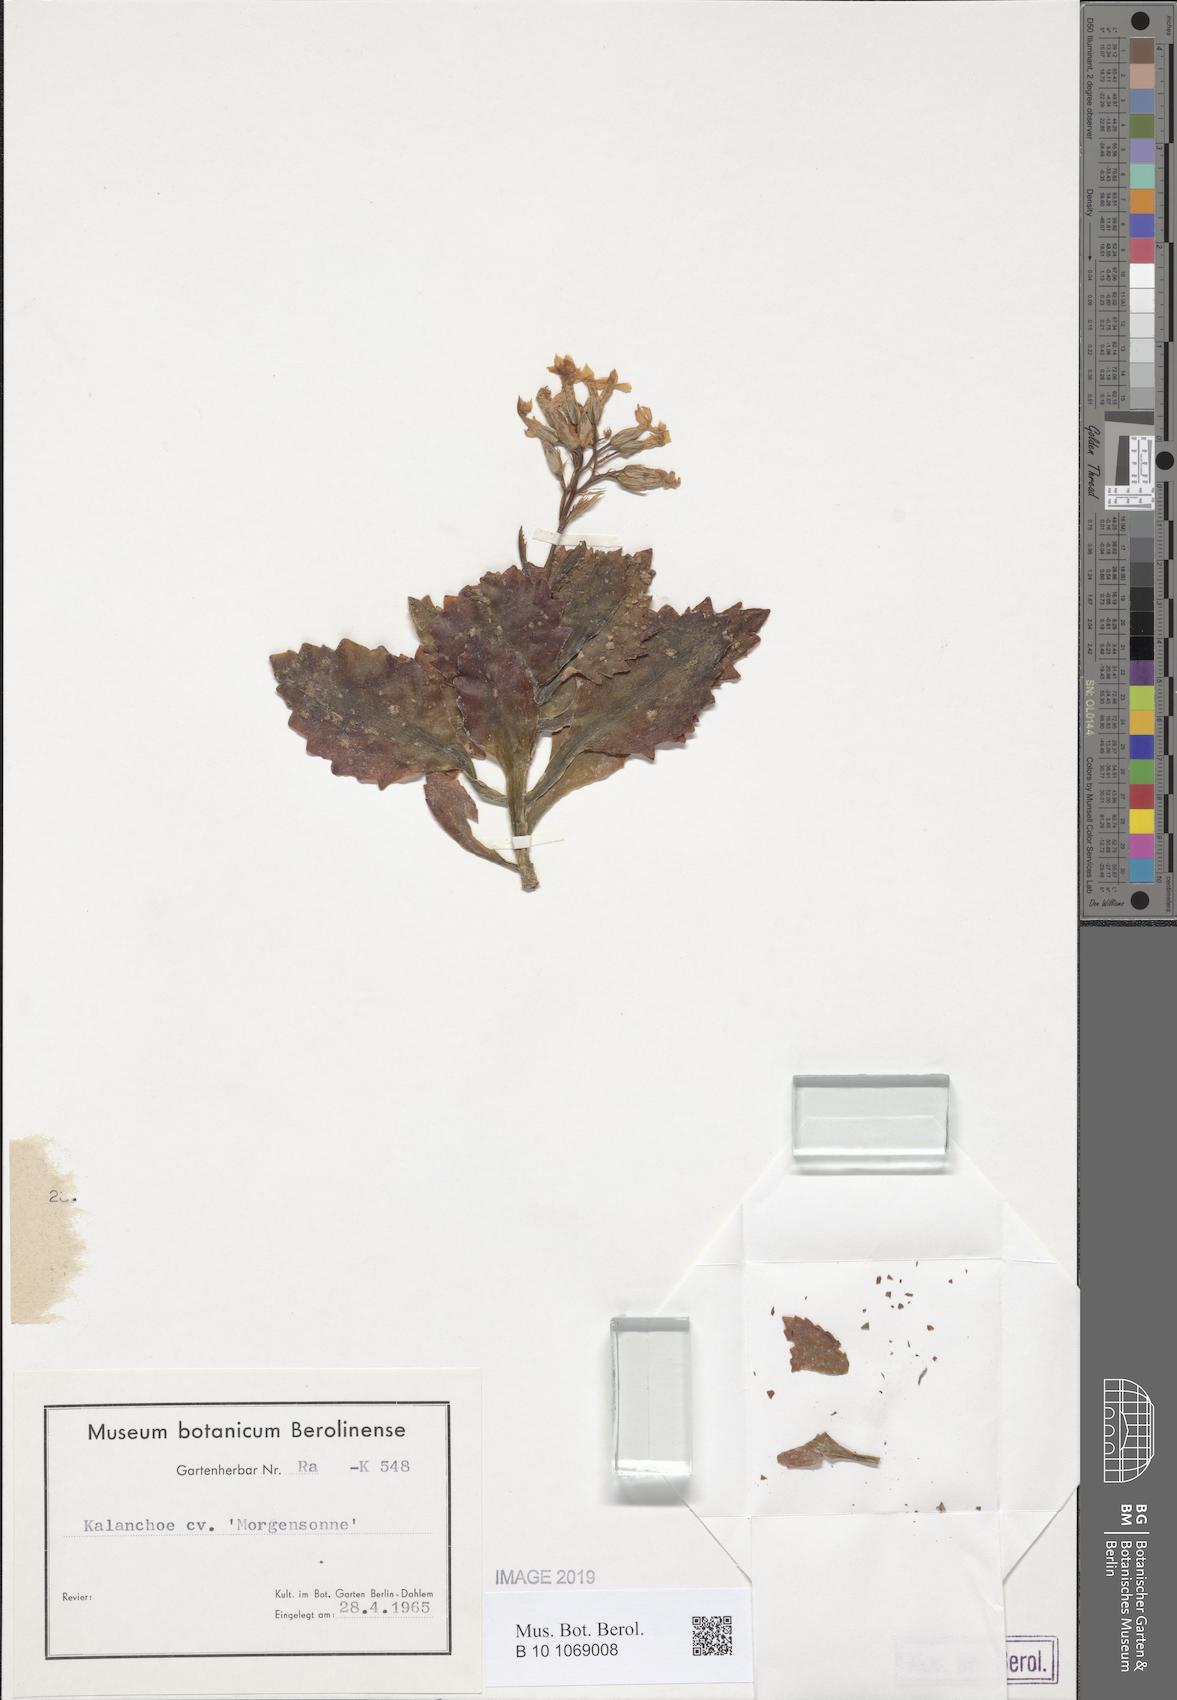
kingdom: Plantae
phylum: Tracheophyta
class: Magnoliopsida
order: Saxifragales
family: Crassulaceae
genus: Kalanchoe
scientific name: Kalanchoe
